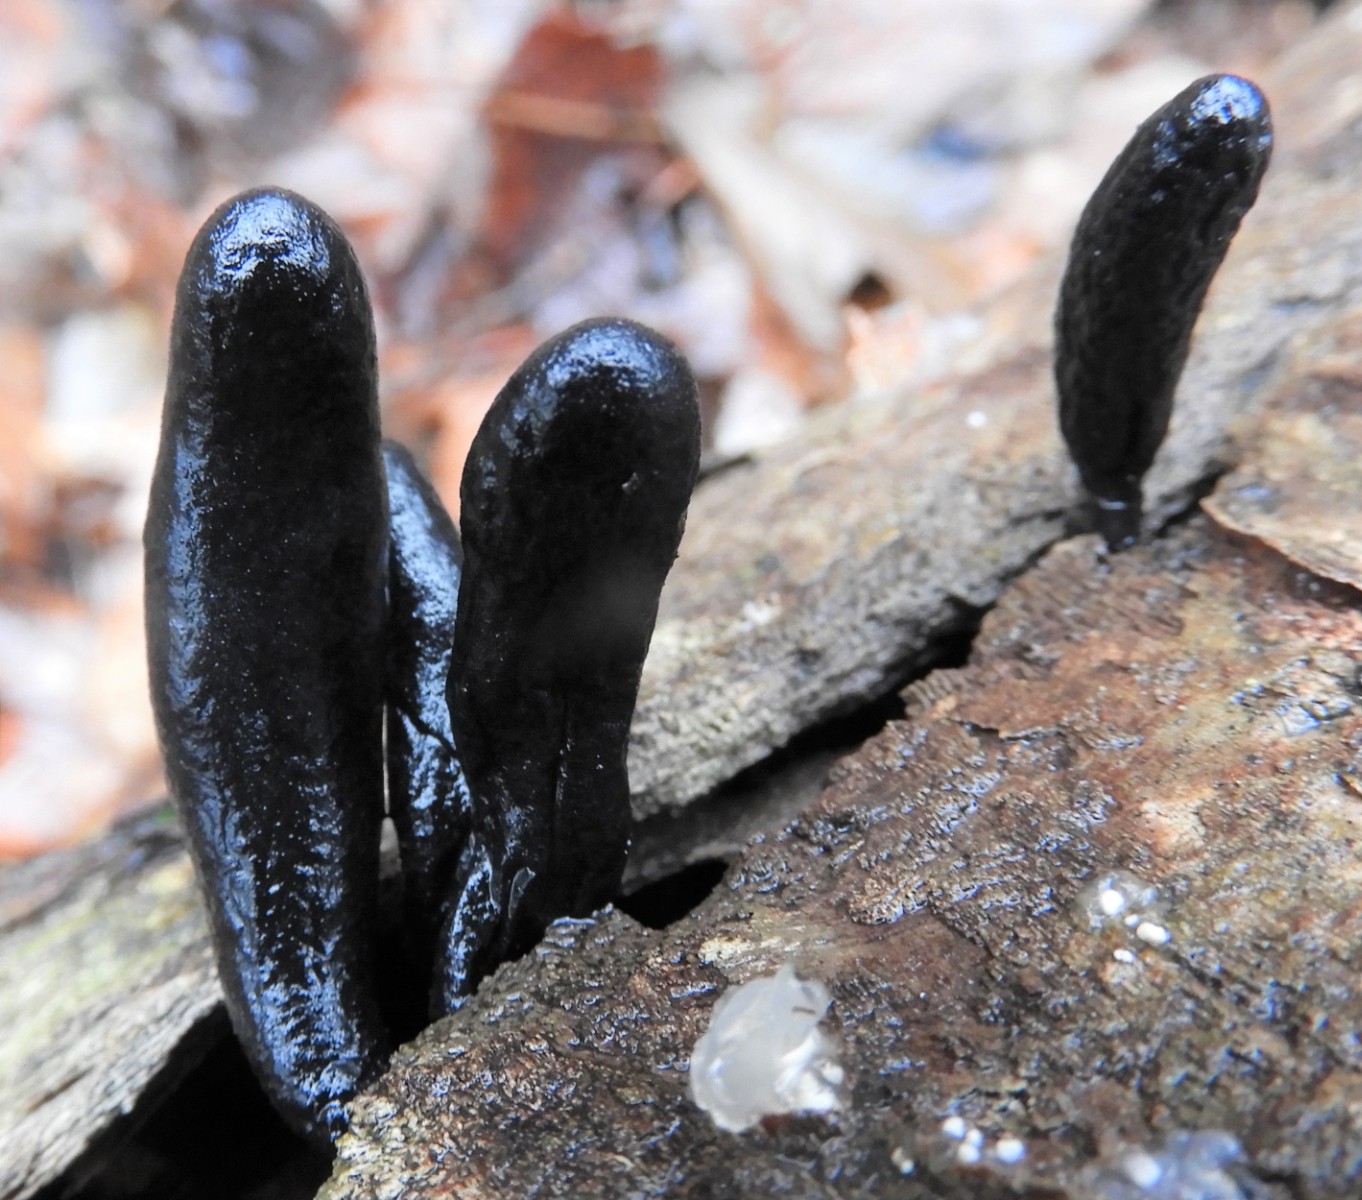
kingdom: Fungi
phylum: Ascomycota
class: Sordariomycetes
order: Xylariales
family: Xylariaceae
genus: Xylaria
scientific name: Xylaria longipes
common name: slank stødsvamp
